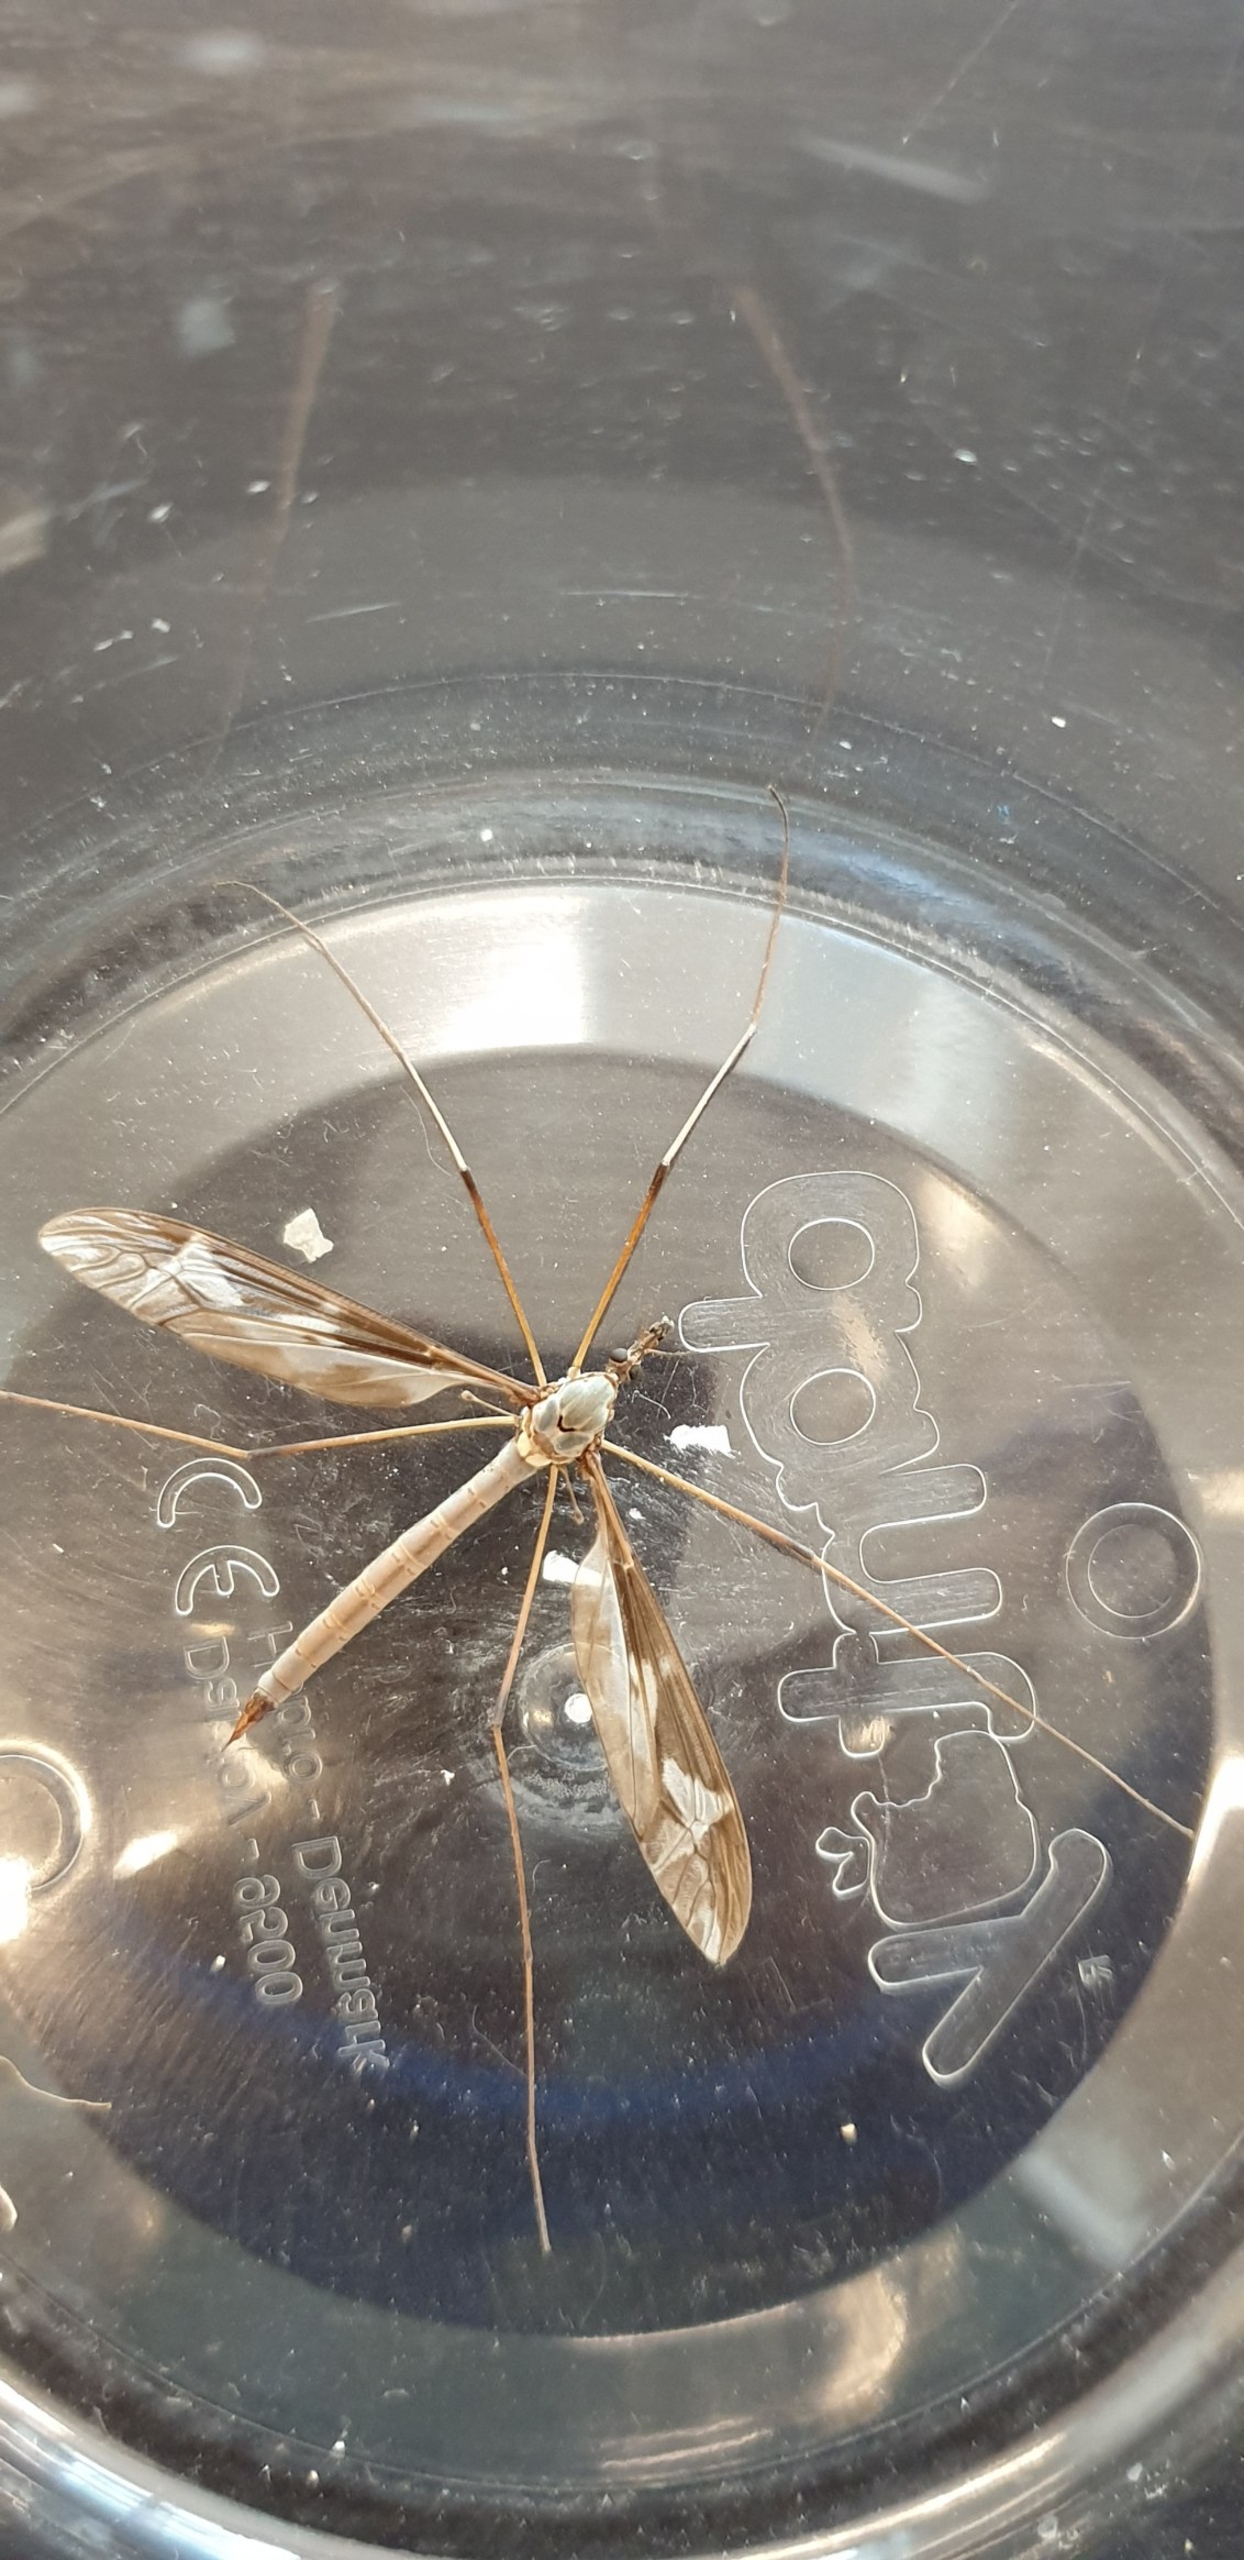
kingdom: Animalia
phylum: Arthropoda
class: Insecta
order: Diptera
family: Tipulidae
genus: Tipula
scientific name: Tipula maxima
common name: Kæmpestankelben
